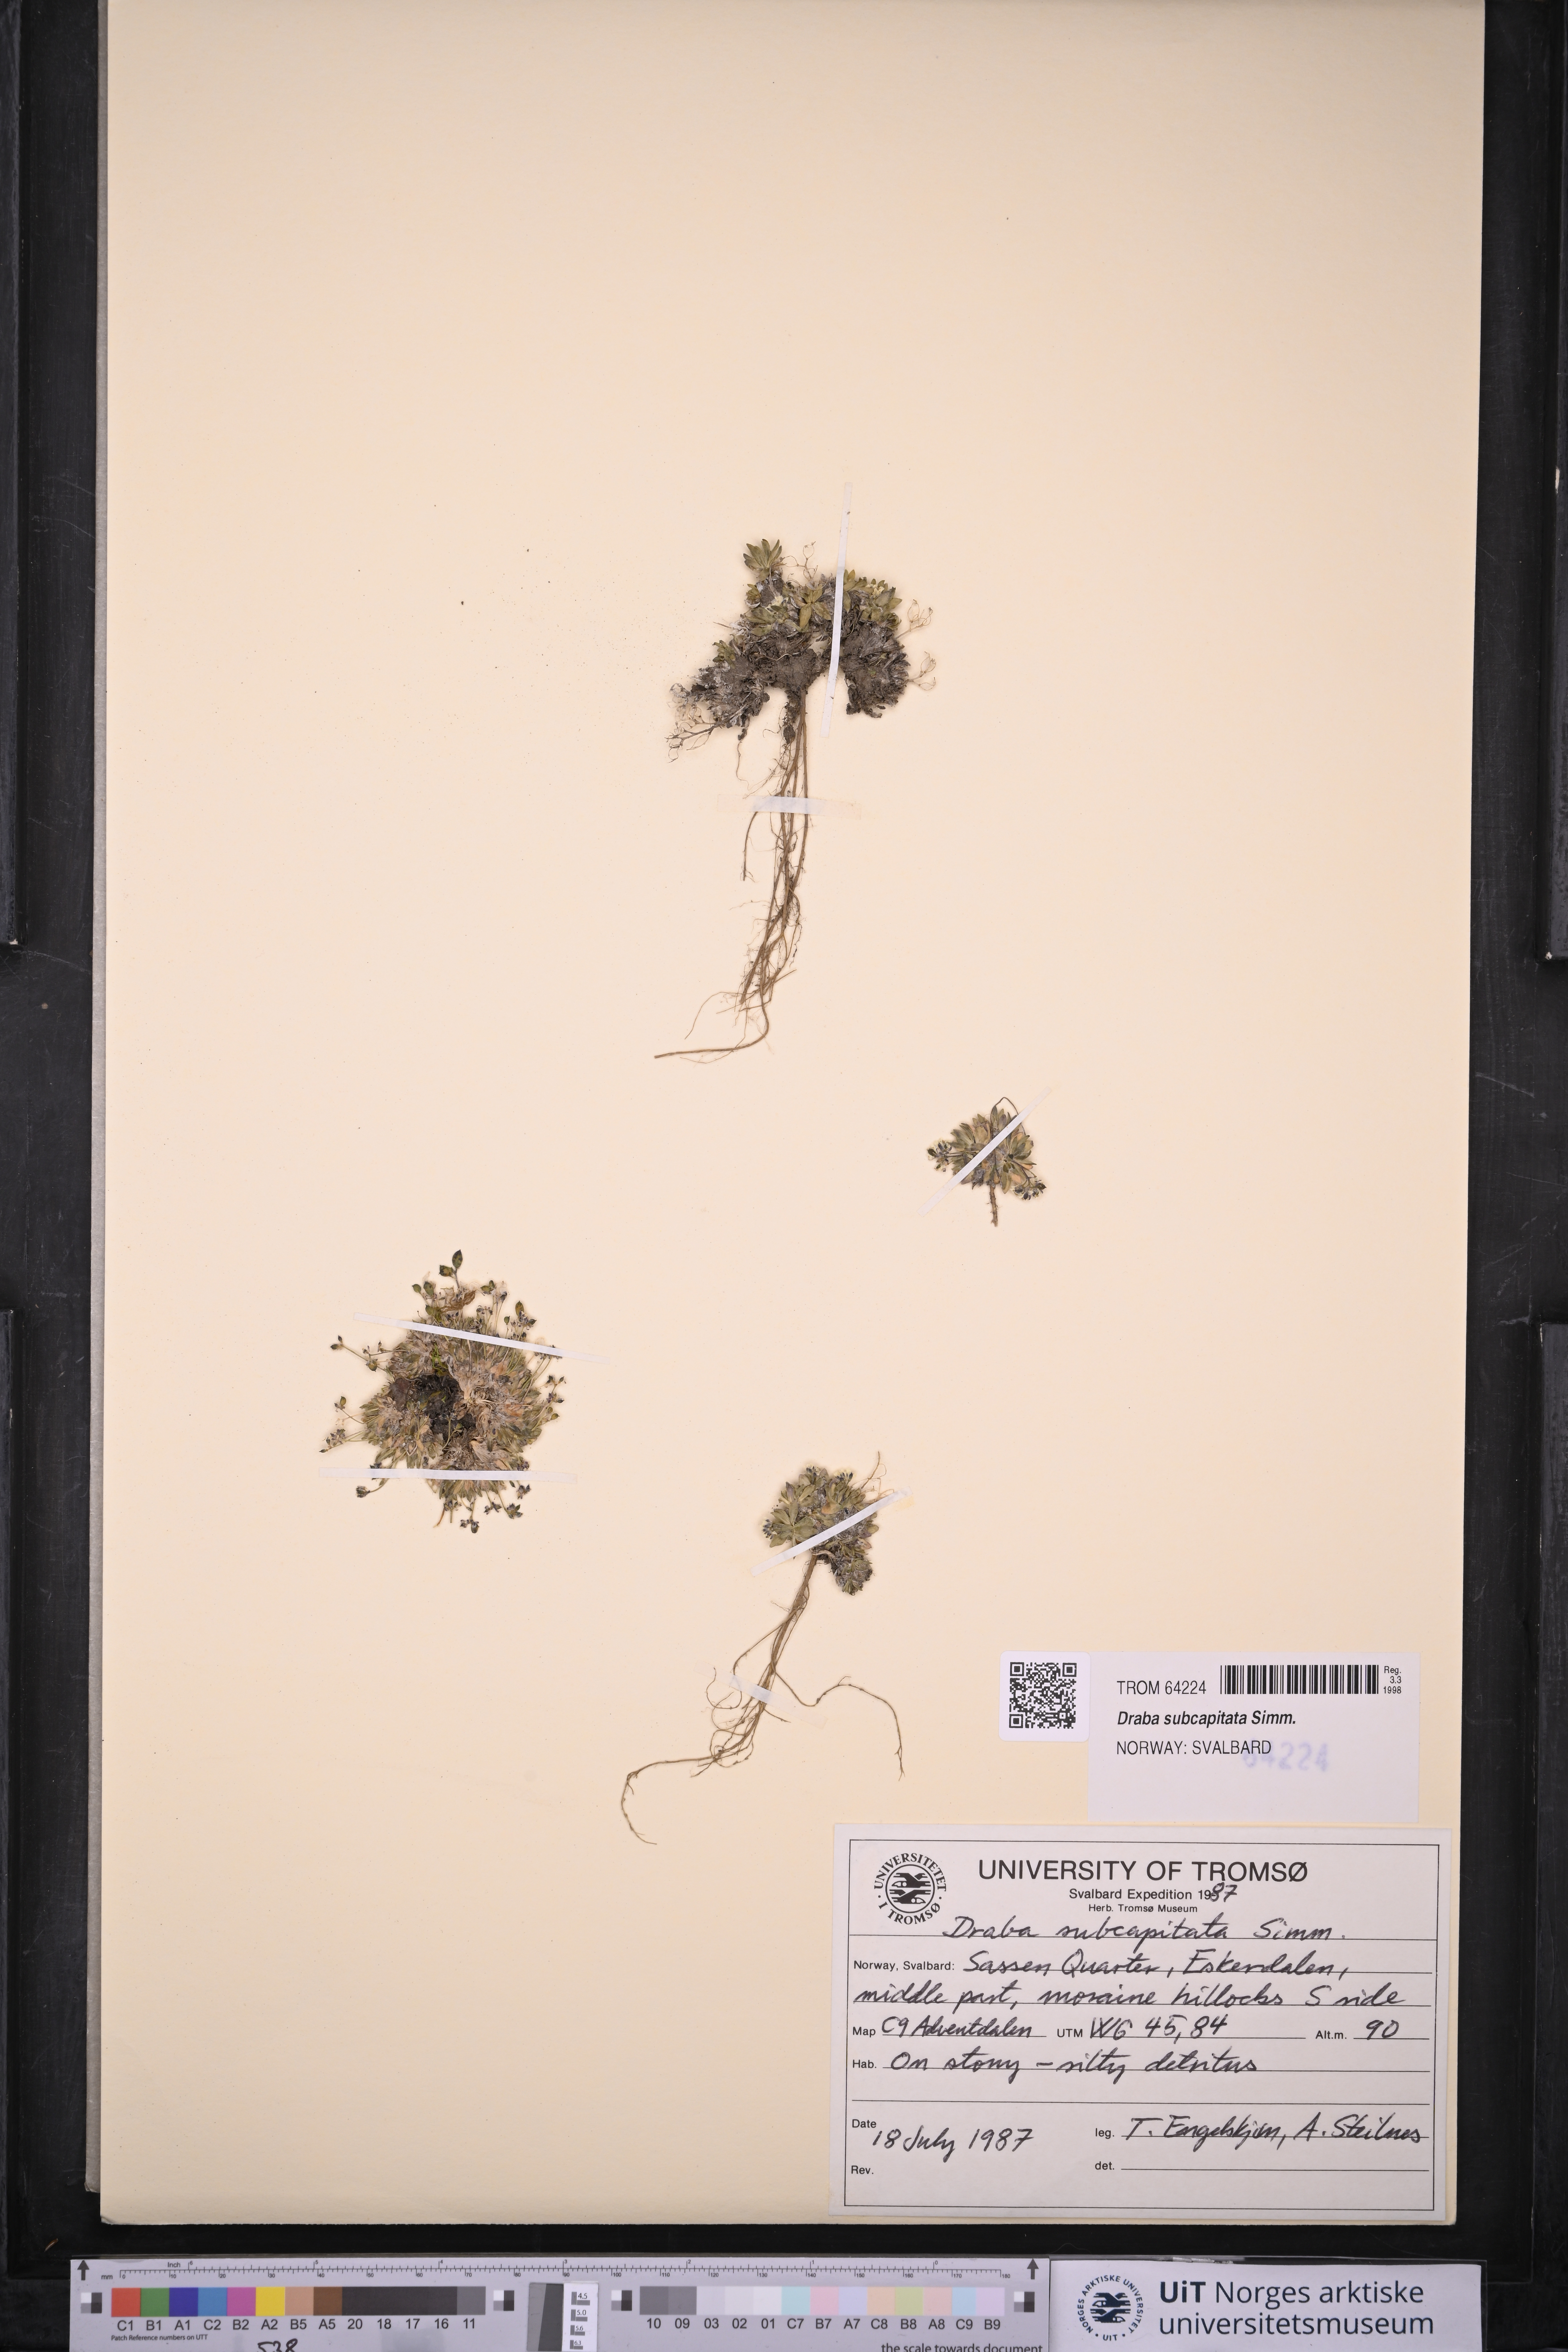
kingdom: Plantae
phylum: Tracheophyta
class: Magnoliopsida
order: Brassicales
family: Brassicaceae
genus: Draba
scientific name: Draba subcapitata
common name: Ellesmere island draba
